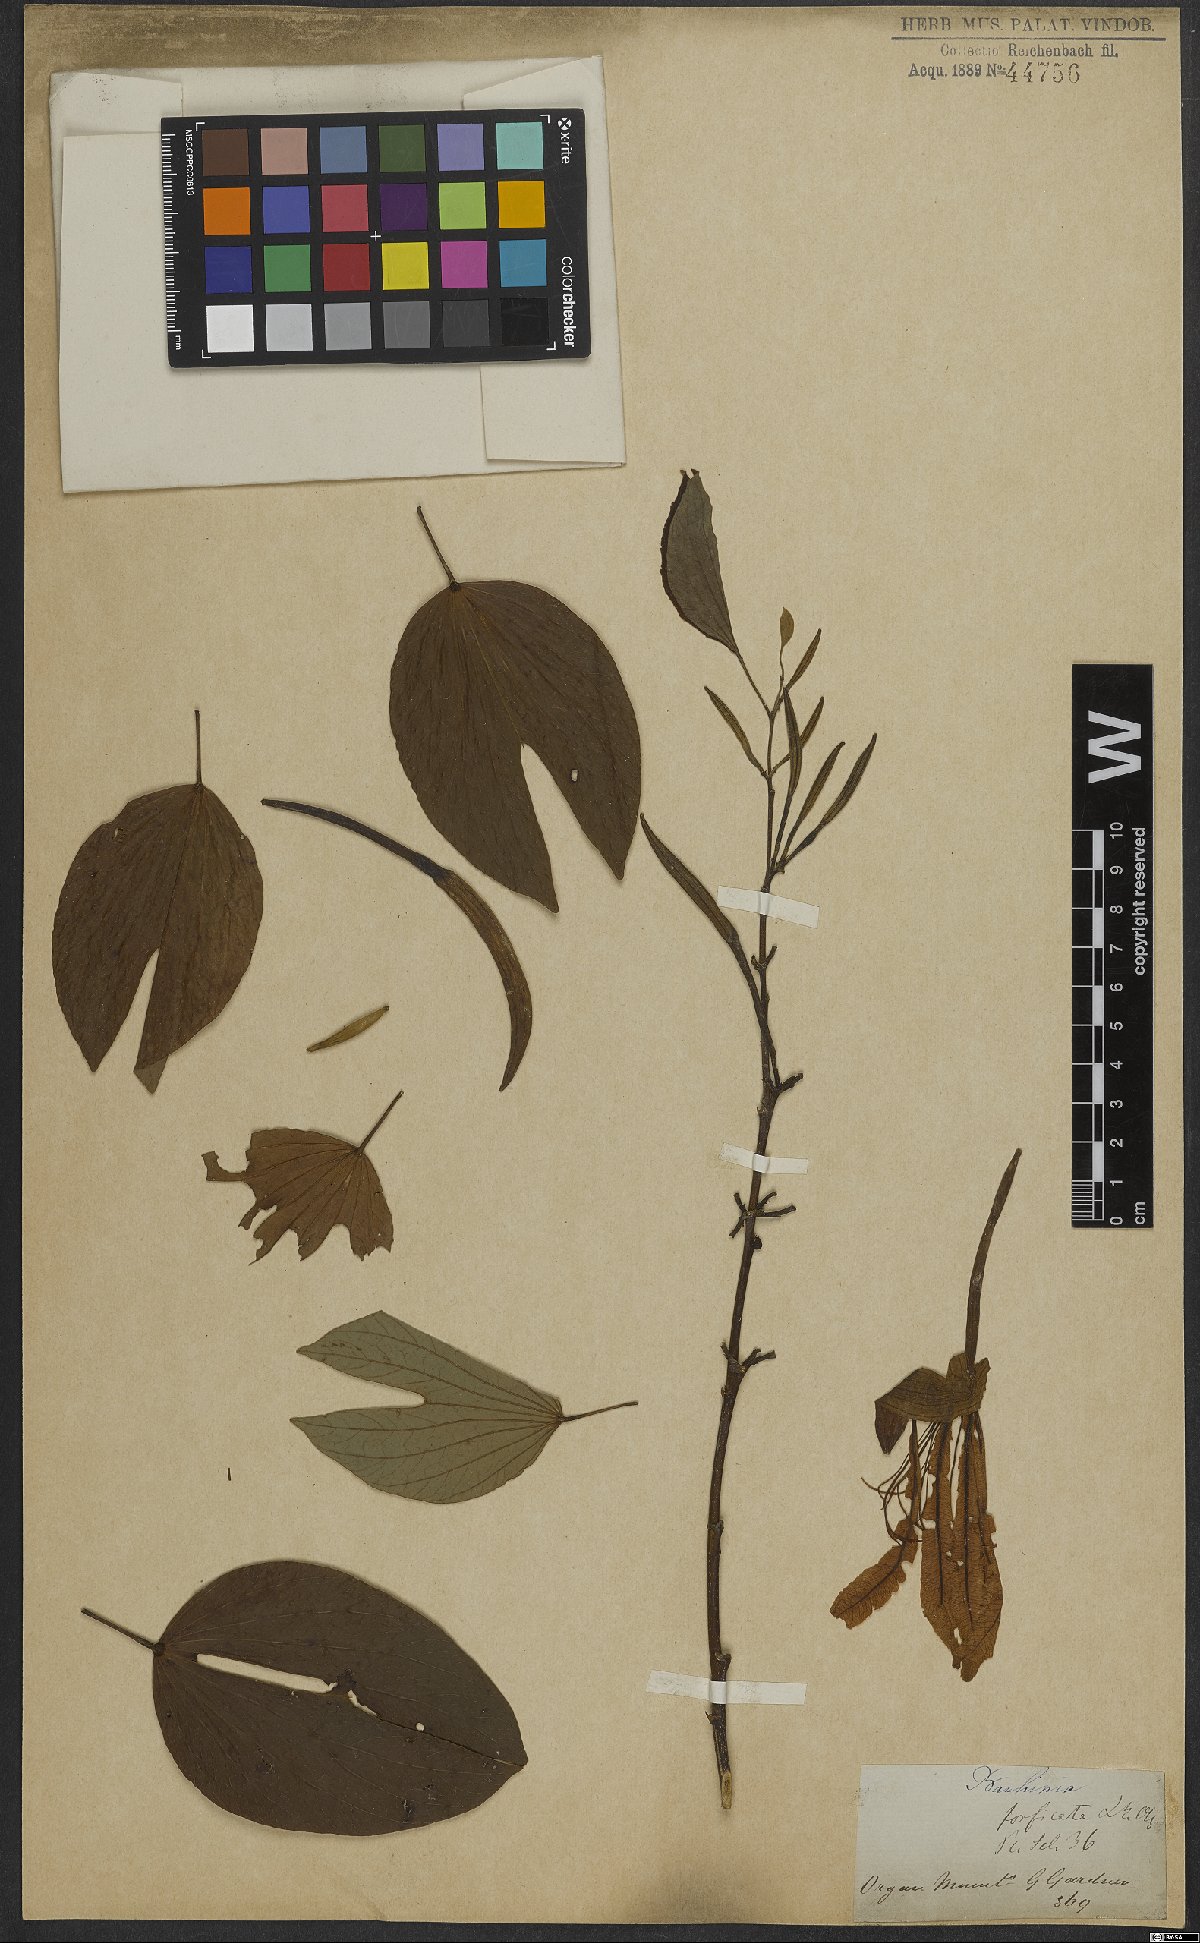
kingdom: Plantae
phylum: Tracheophyta
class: Magnoliopsida
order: Fabales
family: Fabaceae
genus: Bauhinia
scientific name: Bauhinia forficata
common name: Orchid tree
